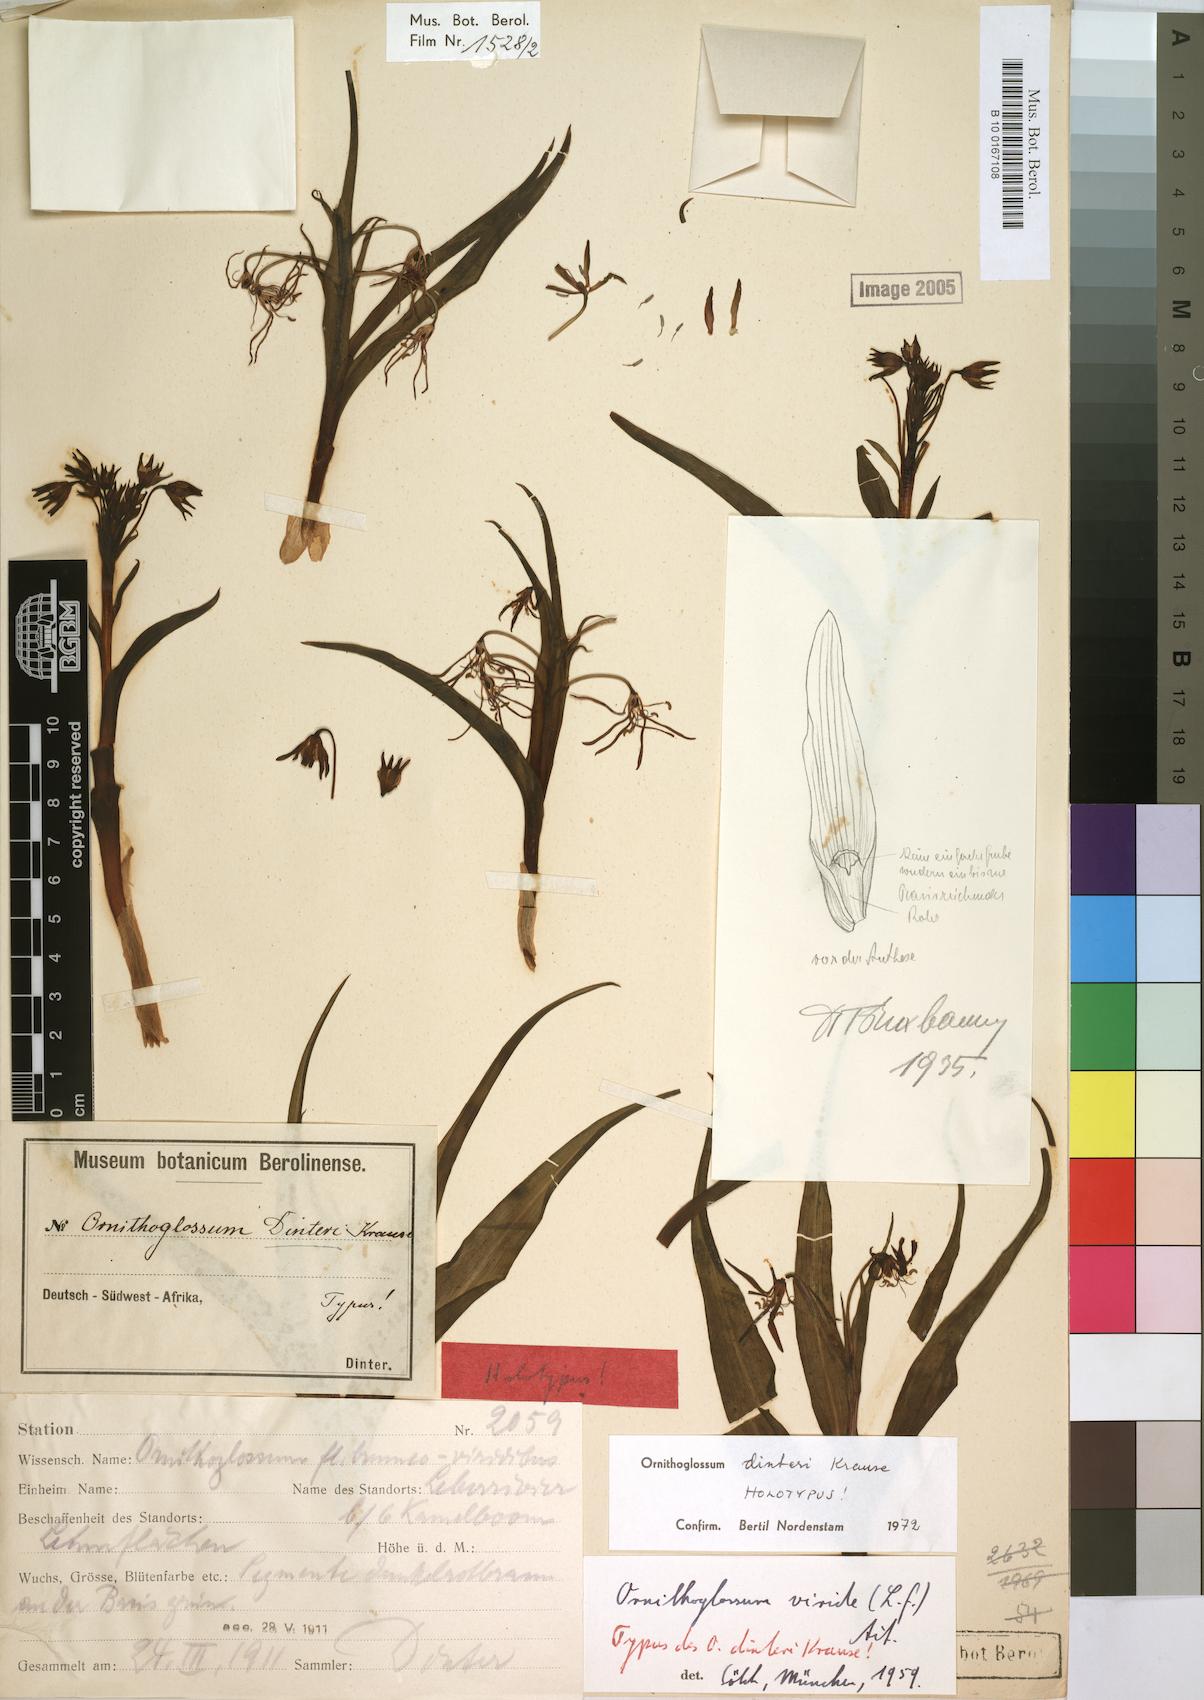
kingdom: Plantae
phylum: Tracheophyta
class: Liliopsida
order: Liliales
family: Colchicaceae
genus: Ornithoglossum
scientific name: Ornithoglossum dinteri
